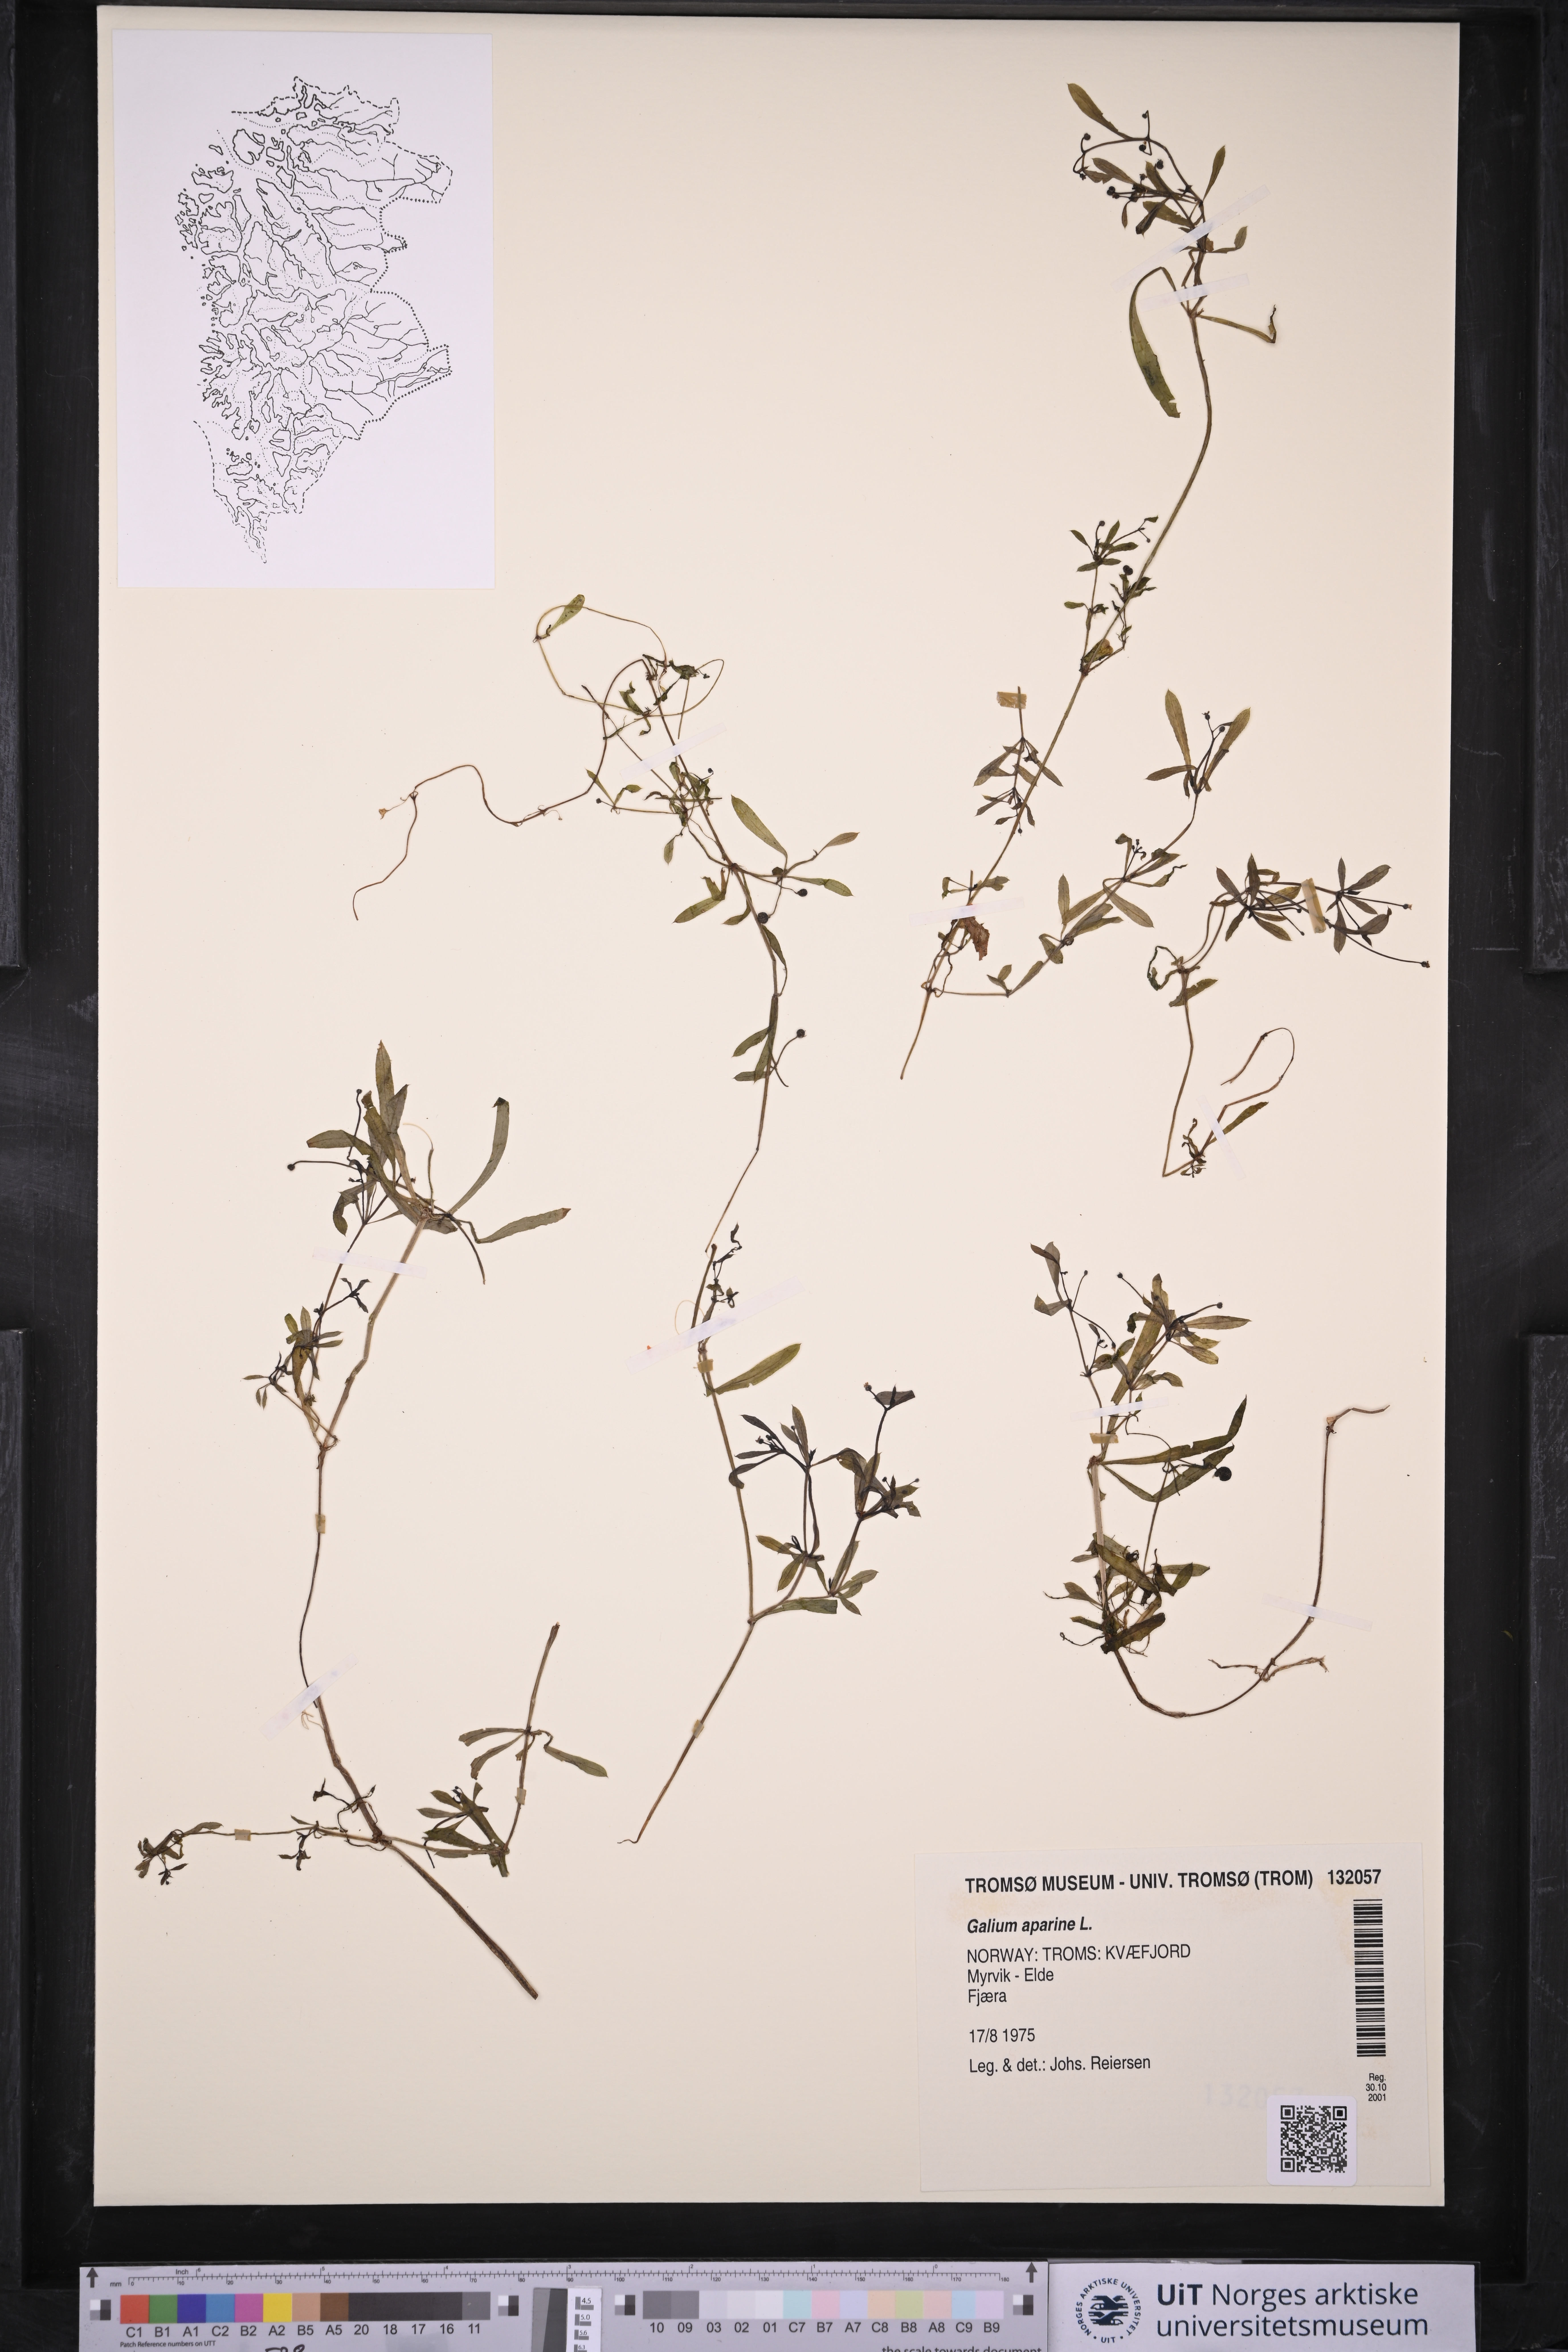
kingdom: Plantae
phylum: Tracheophyta
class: Magnoliopsida
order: Gentianales
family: Rubiaceae
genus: Galium
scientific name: Galium aparine
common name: Cleavers
